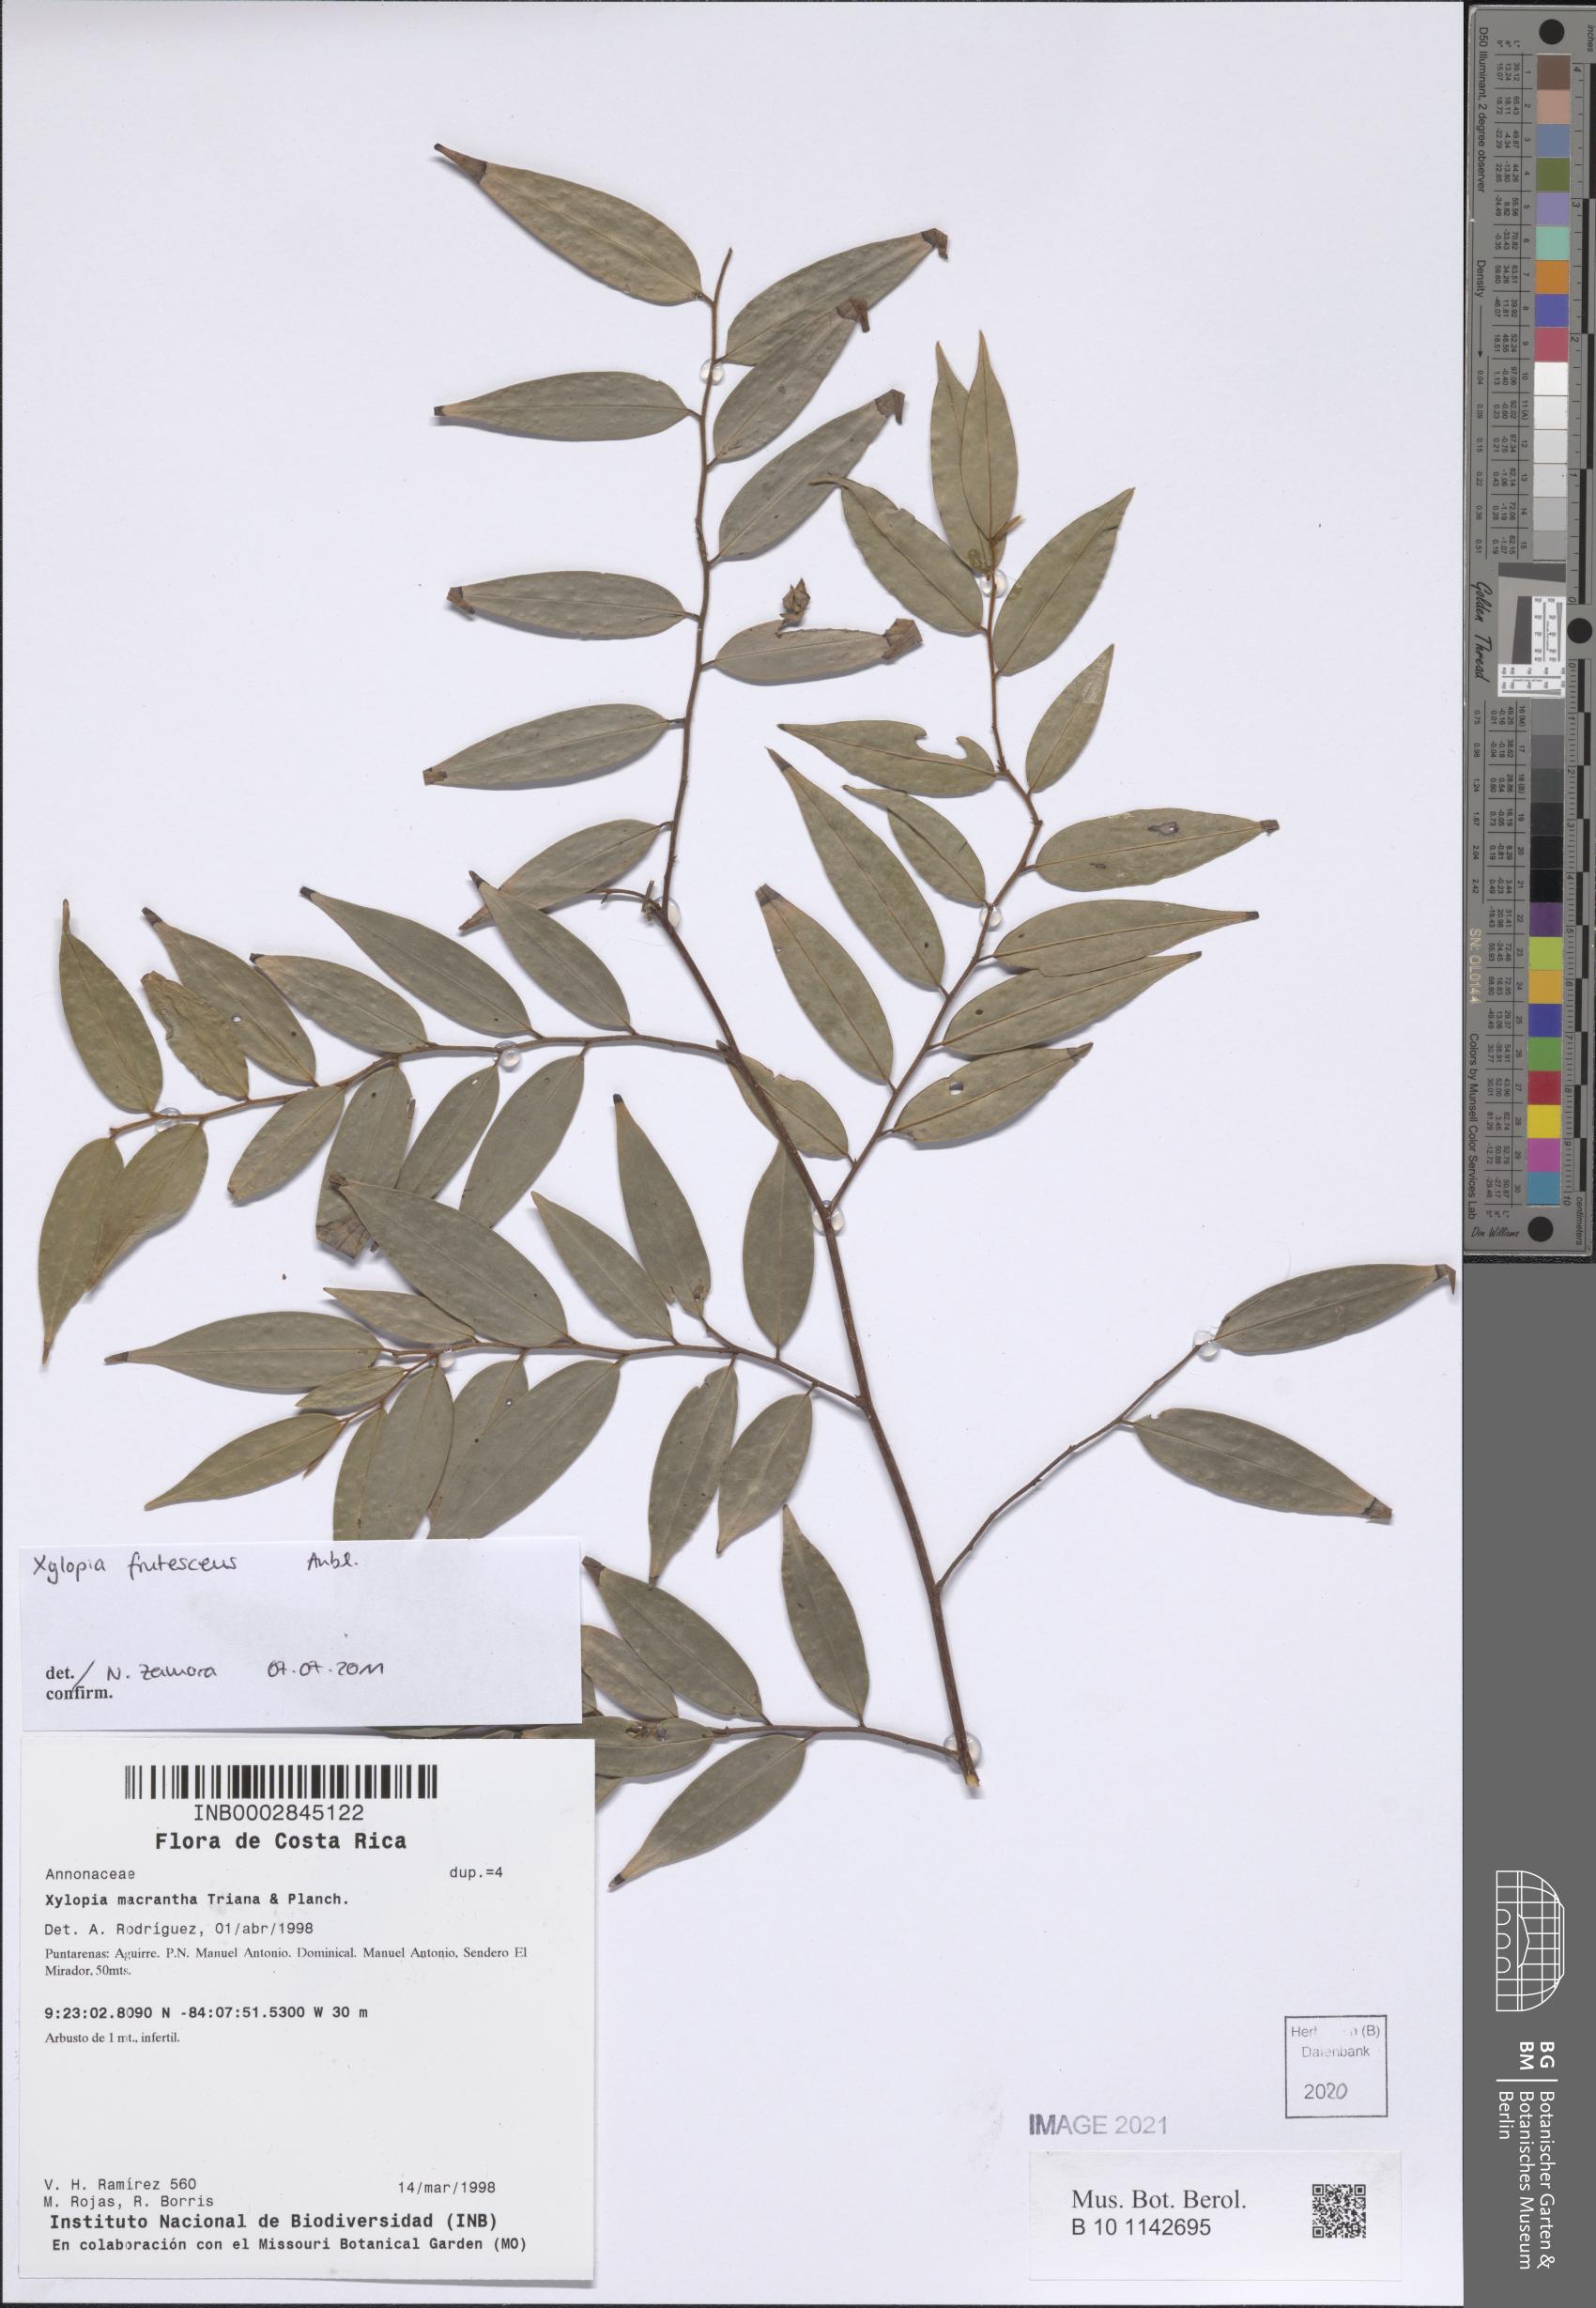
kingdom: Plantae
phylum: Tracheophyta
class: Magnoliopsida
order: Magnoliales
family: Annonaceae
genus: Xylopia
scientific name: Xylopia frutescens
